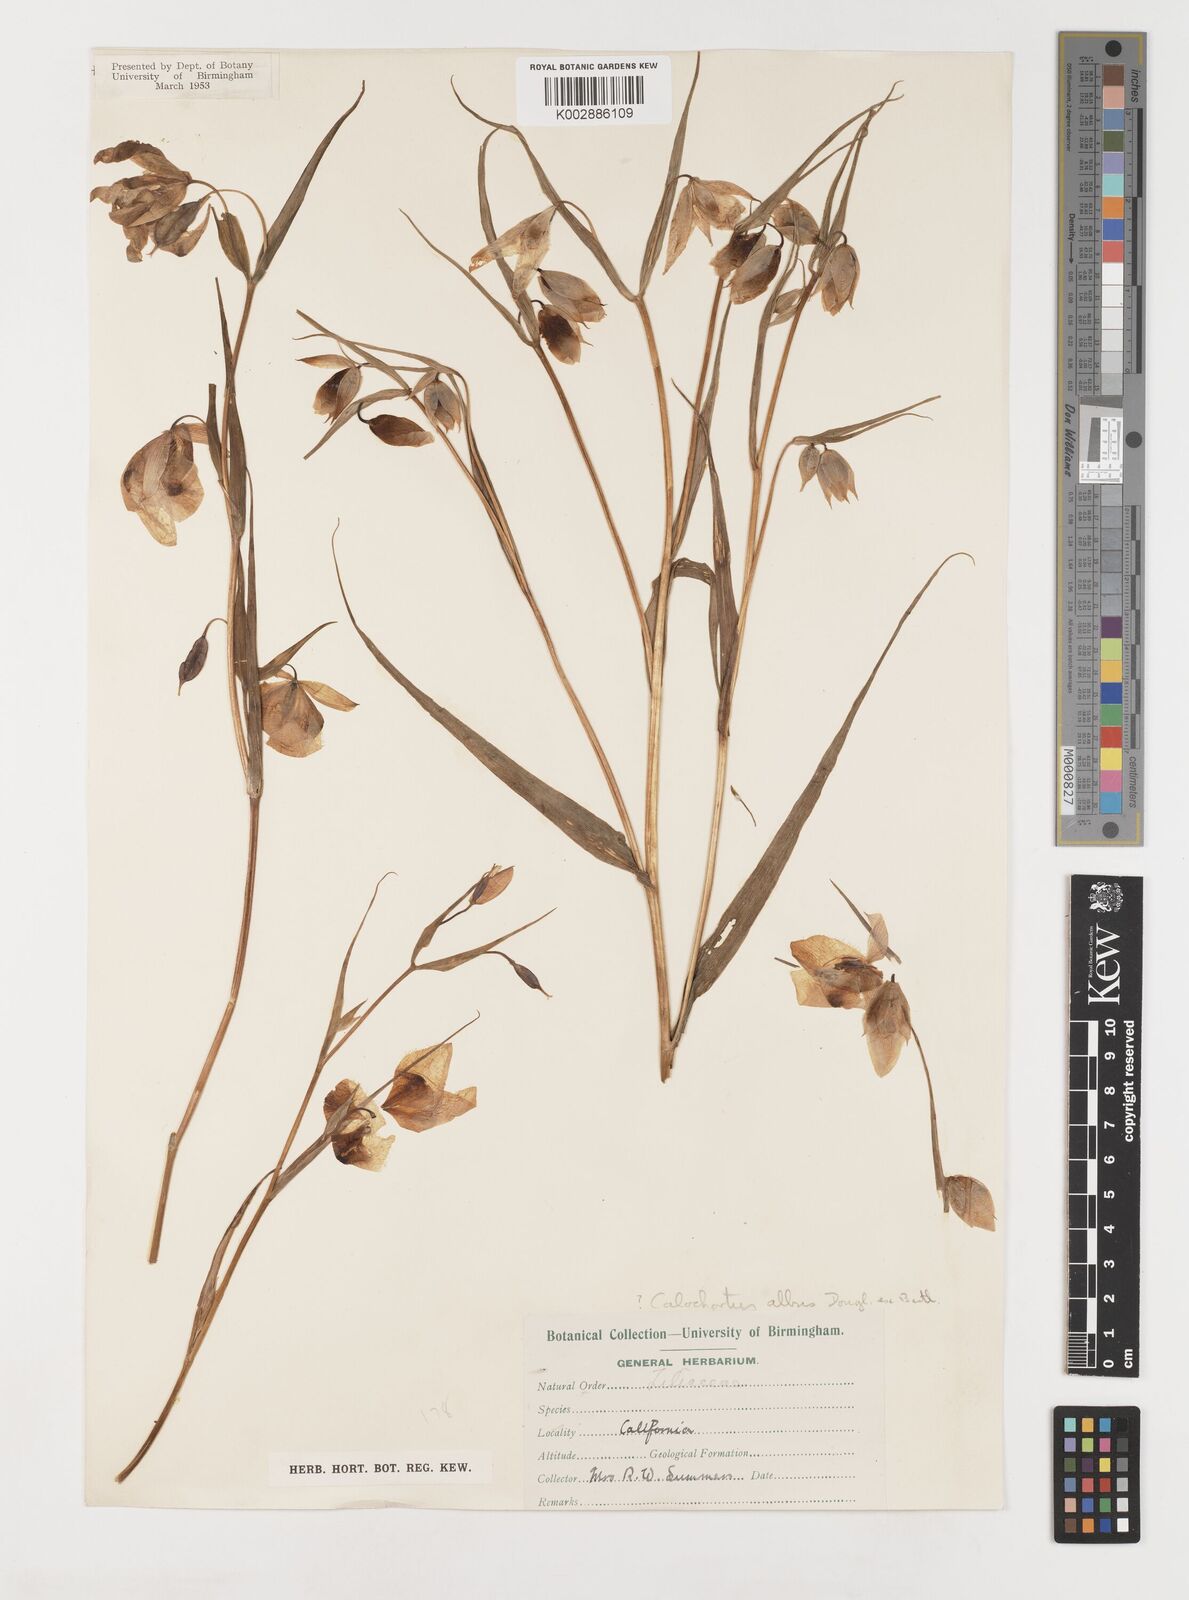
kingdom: Plantae
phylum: Tracheophyta
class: Liliopsida
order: Liliales
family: Liliaceae
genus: Calochortus
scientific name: Calochortus albus
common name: Fairy-lantern
